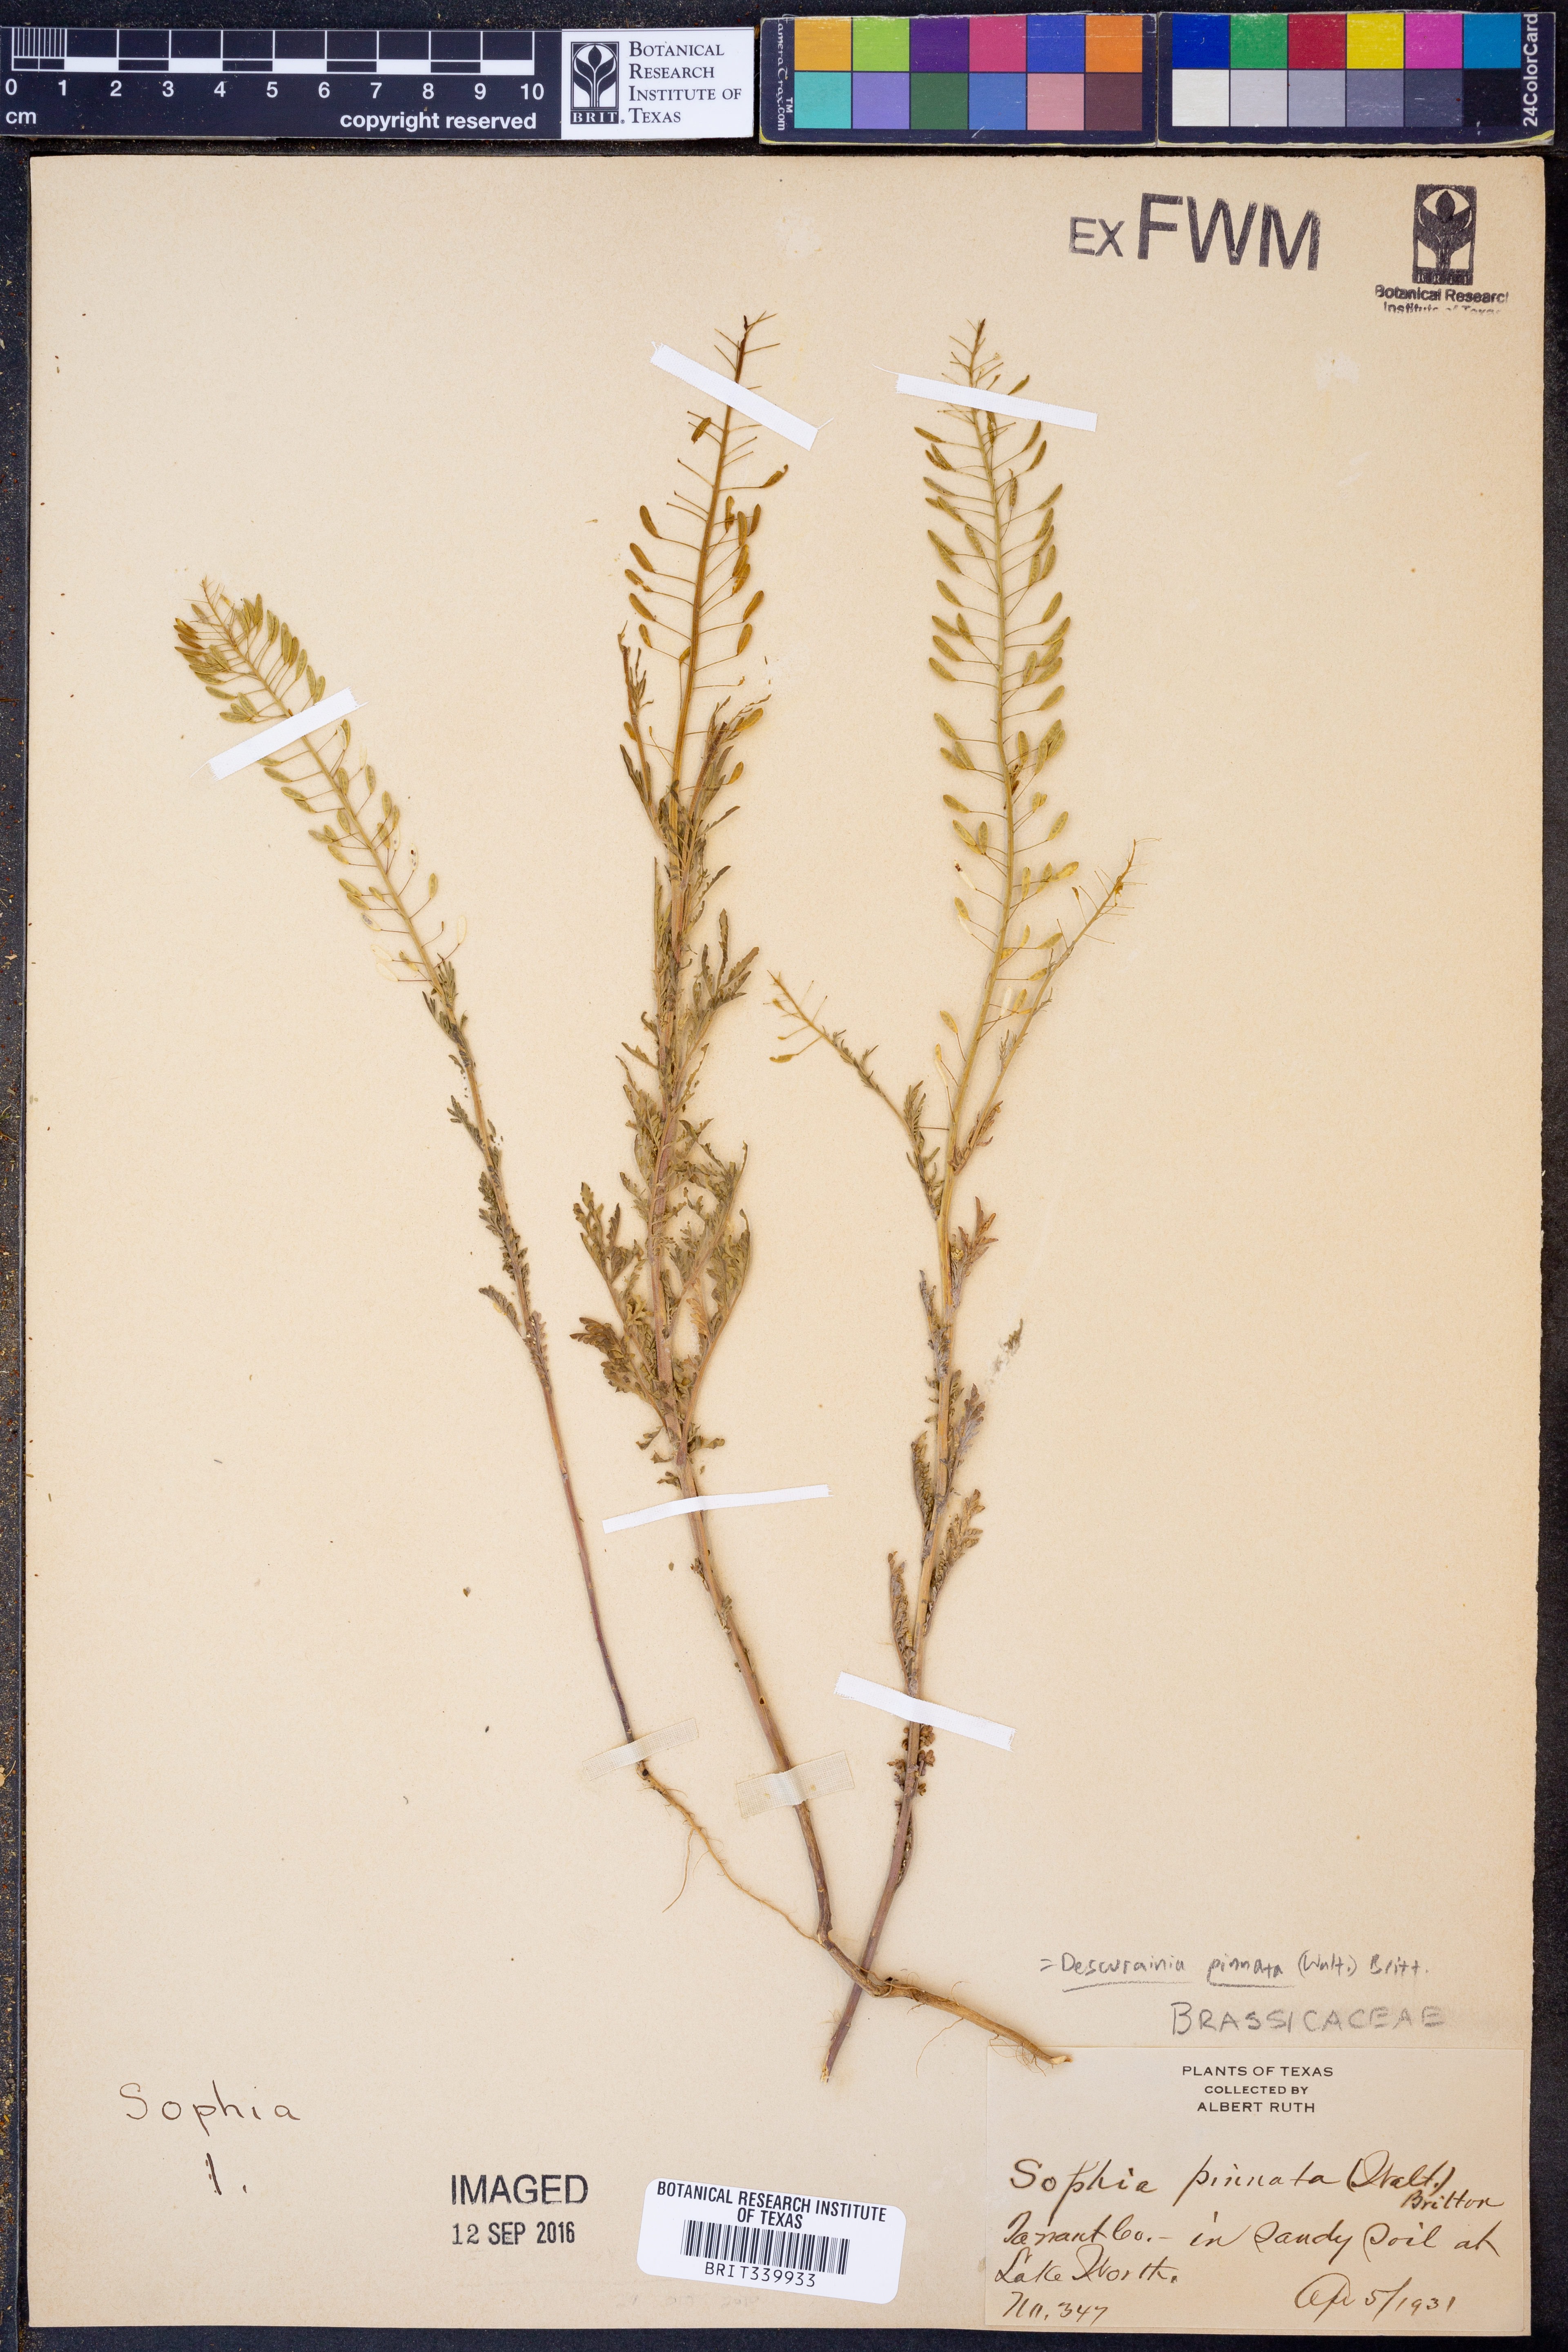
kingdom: Plantae
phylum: Tracheophyta
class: Magnoliopsida
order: Brassicales
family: Brassicaceae
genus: Descurainia
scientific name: Descurainia pinnata
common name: Western tansy mustard
